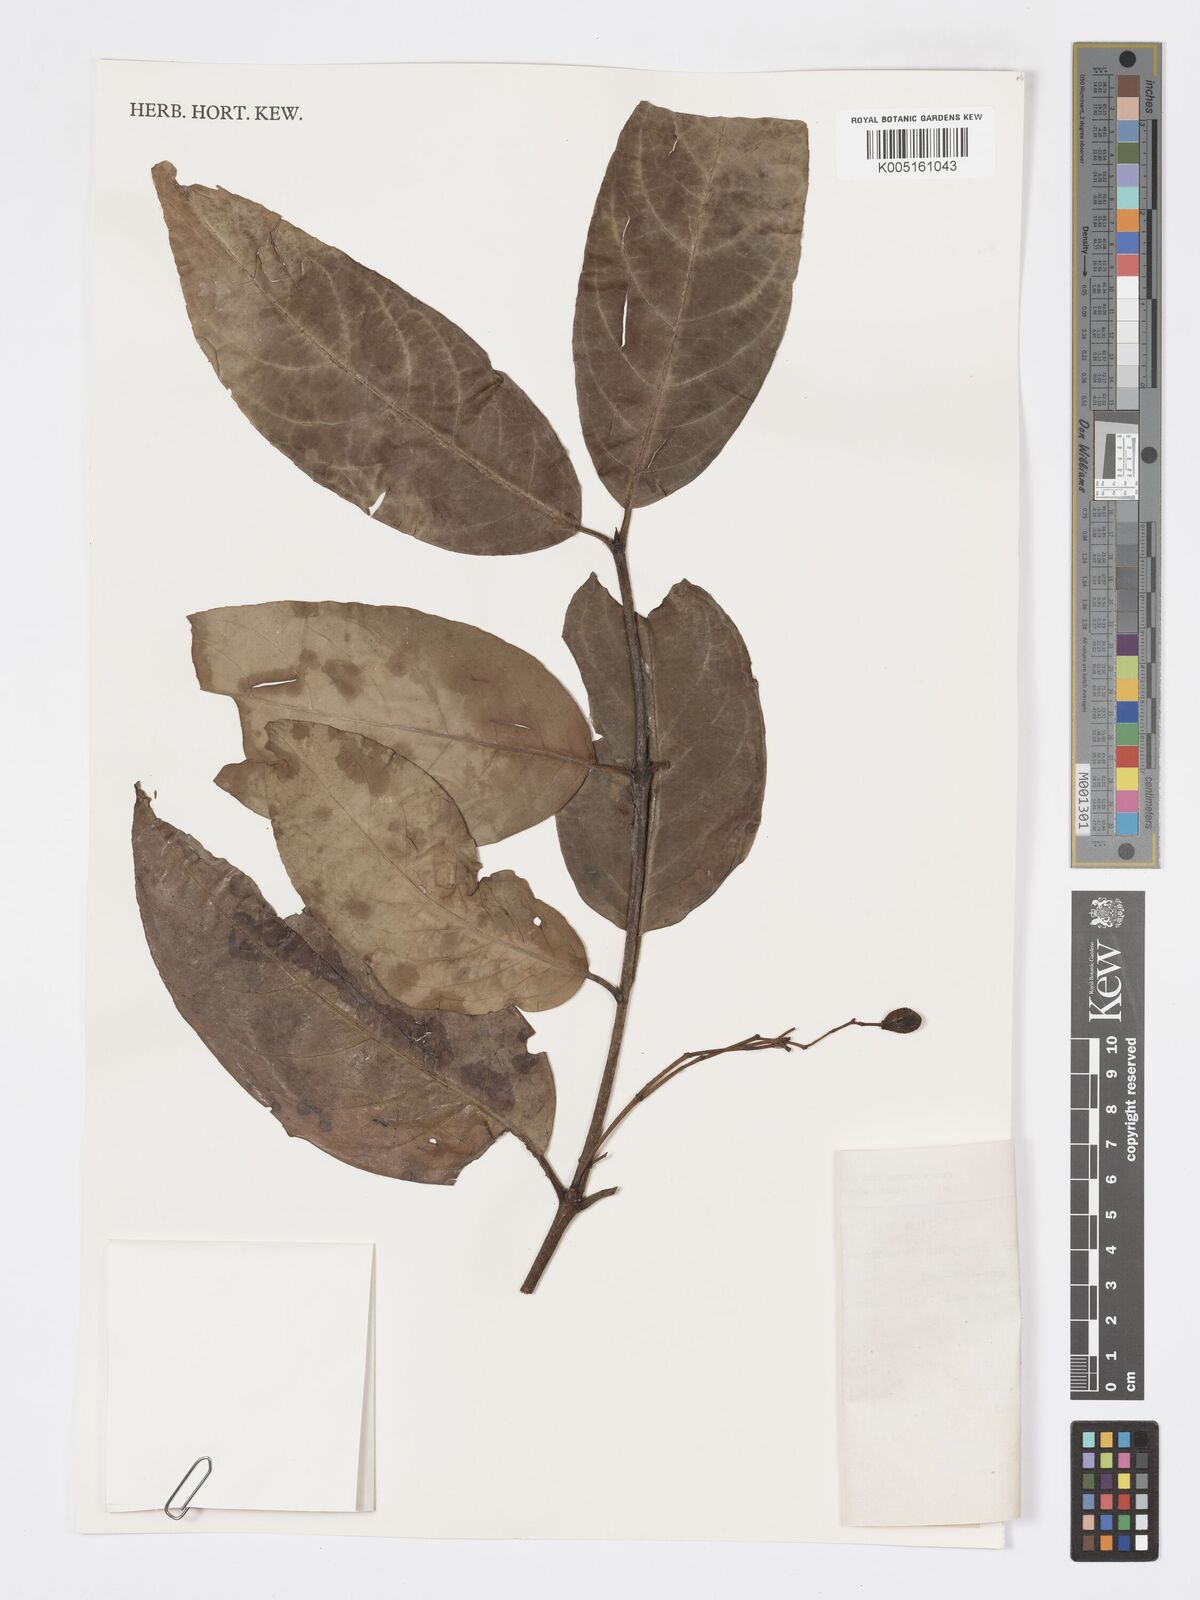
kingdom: Plantae
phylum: Tracheophyta
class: Magnoliopsida
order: Celastrales
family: Celastraceae
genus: Euonymus
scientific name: Euonymus indicus
